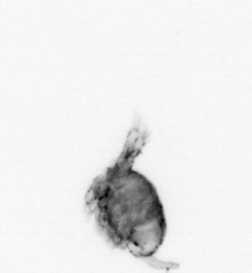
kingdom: Animalia
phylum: Arthropoda
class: Copepoda
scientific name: Copepoda
